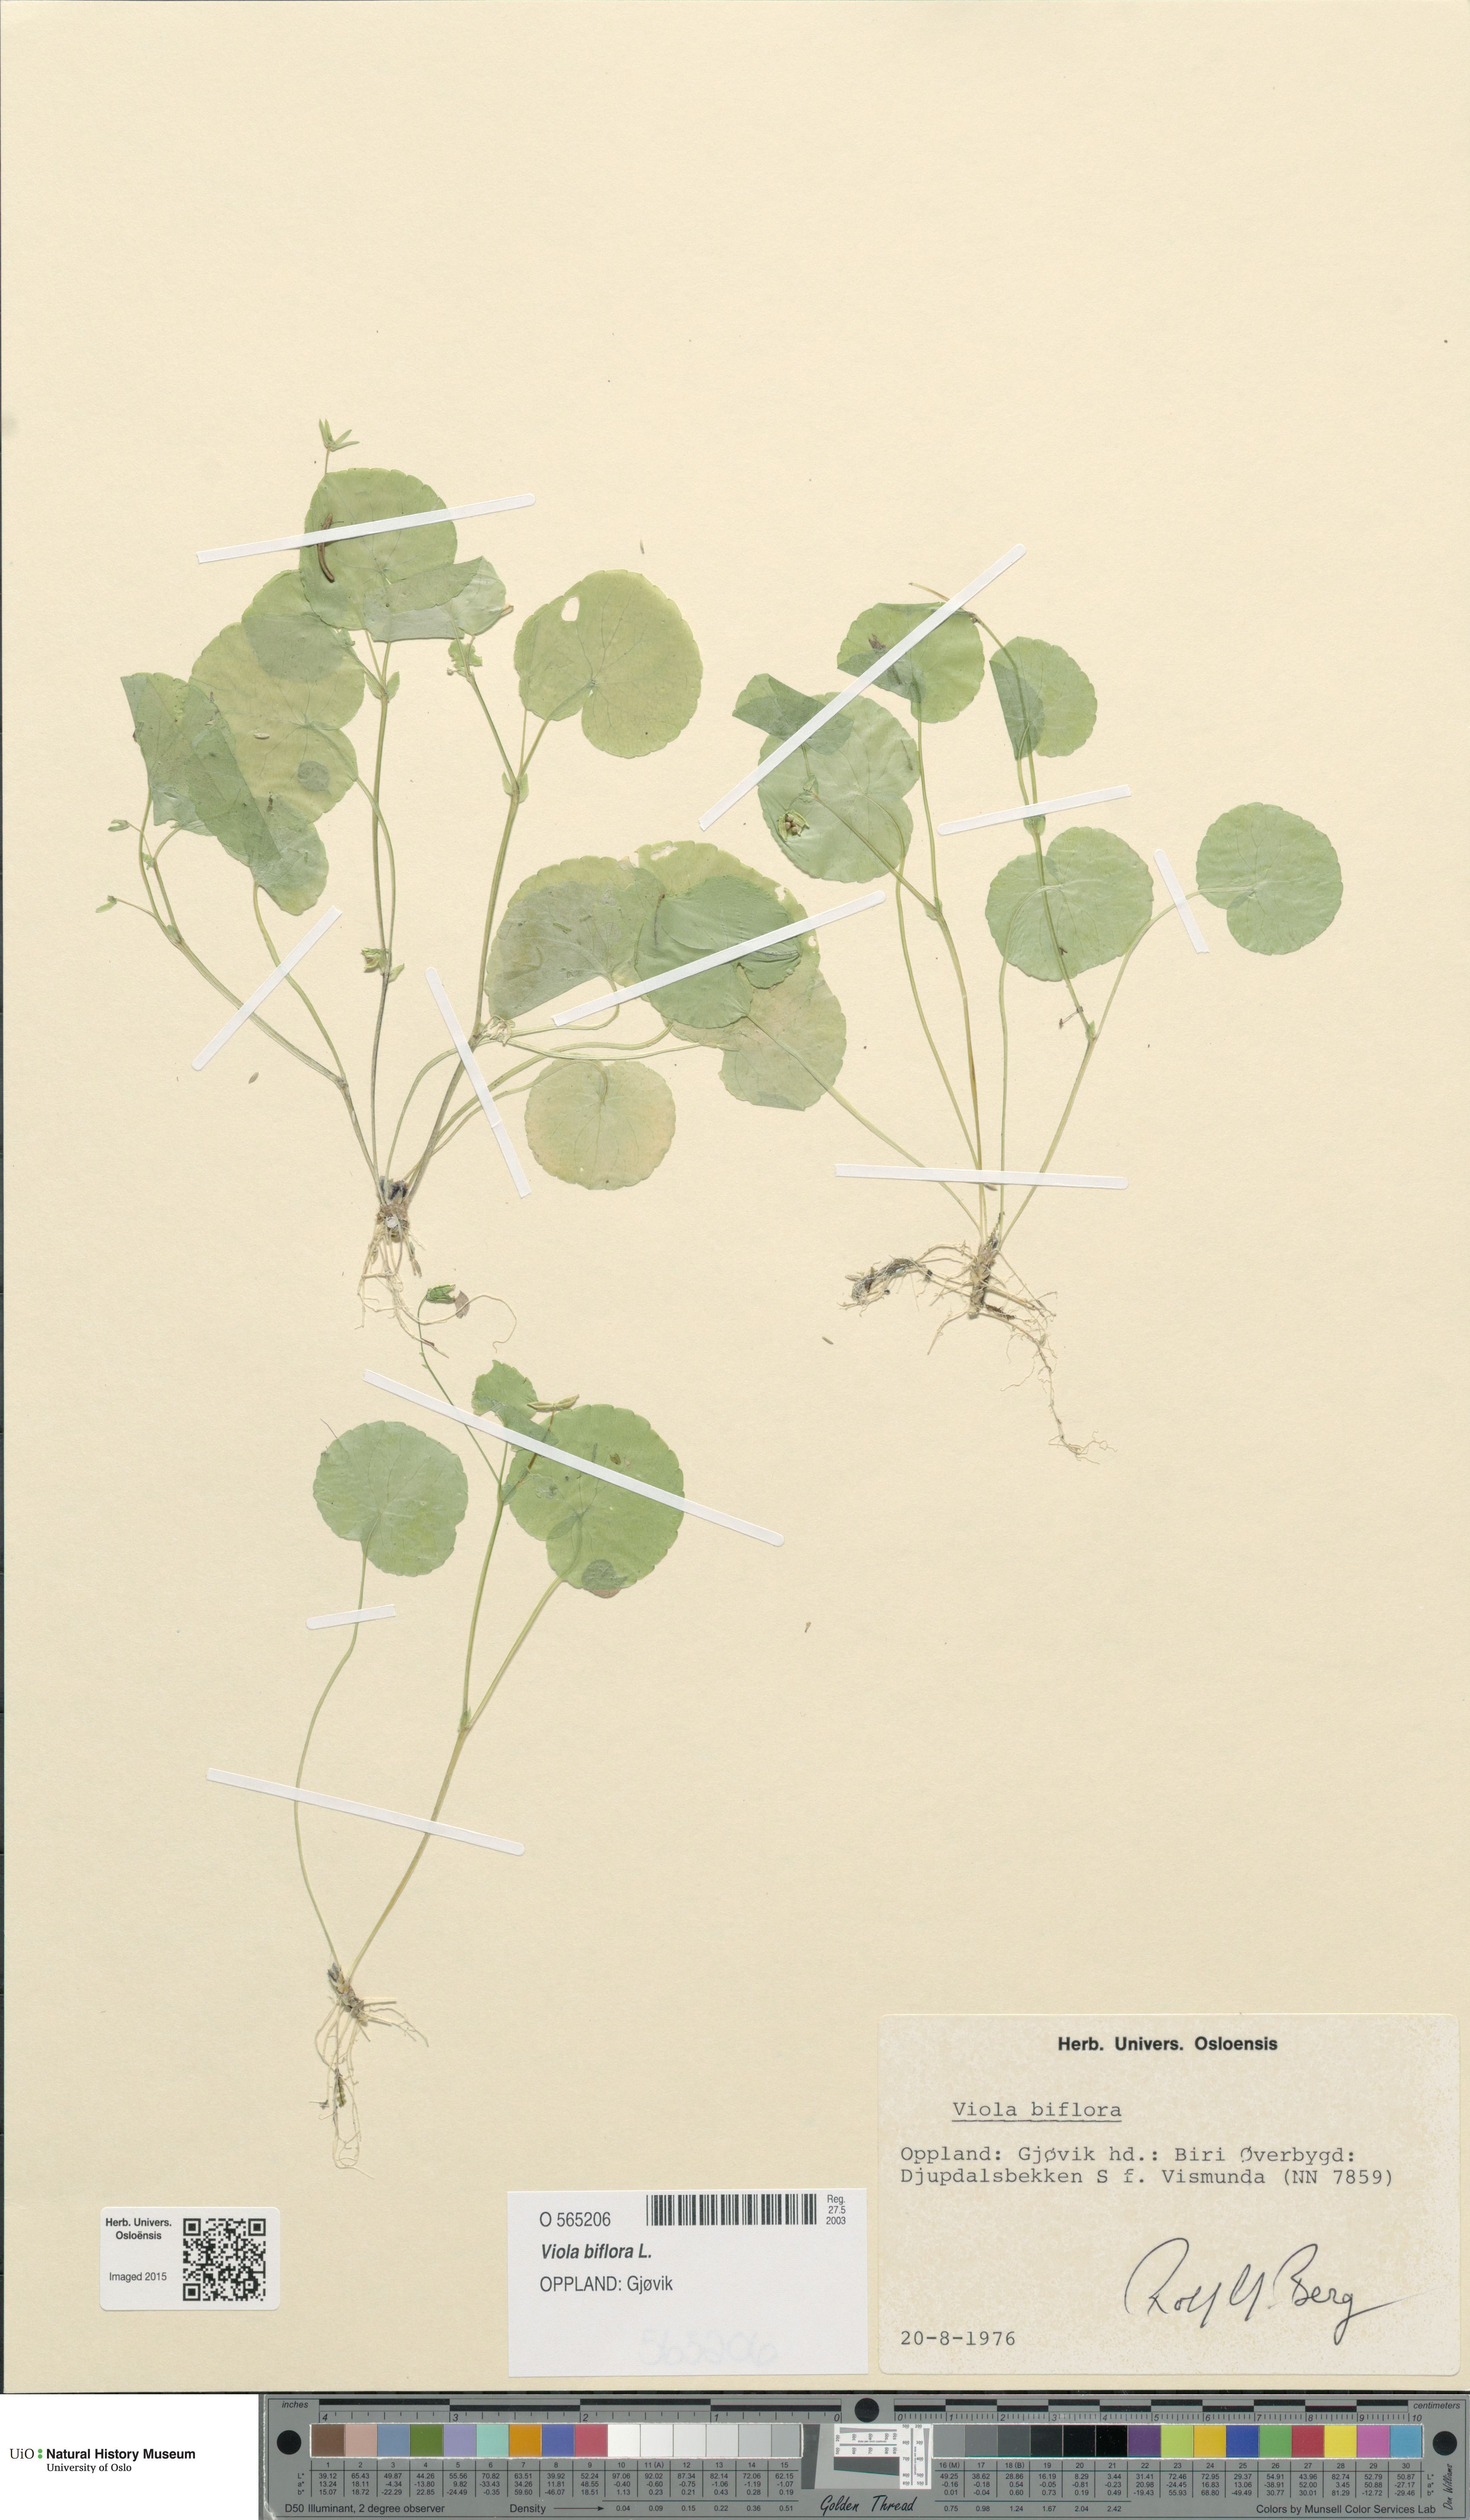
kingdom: Plantae
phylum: Tracheophyta
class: Magnoliopsida
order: Malpighiales
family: Violaceae
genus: Viola
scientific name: Viola biflora
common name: Alpine yellow violet
